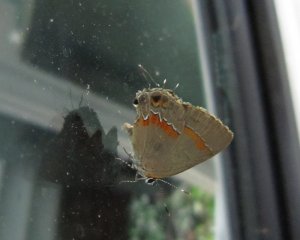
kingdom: Animalia
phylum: Arthropoda
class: Insecta
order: Lepidoptera
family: Lycaenidae
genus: Calycopis
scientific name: Calycopis cecrops
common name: Red-banded Hairstreak
